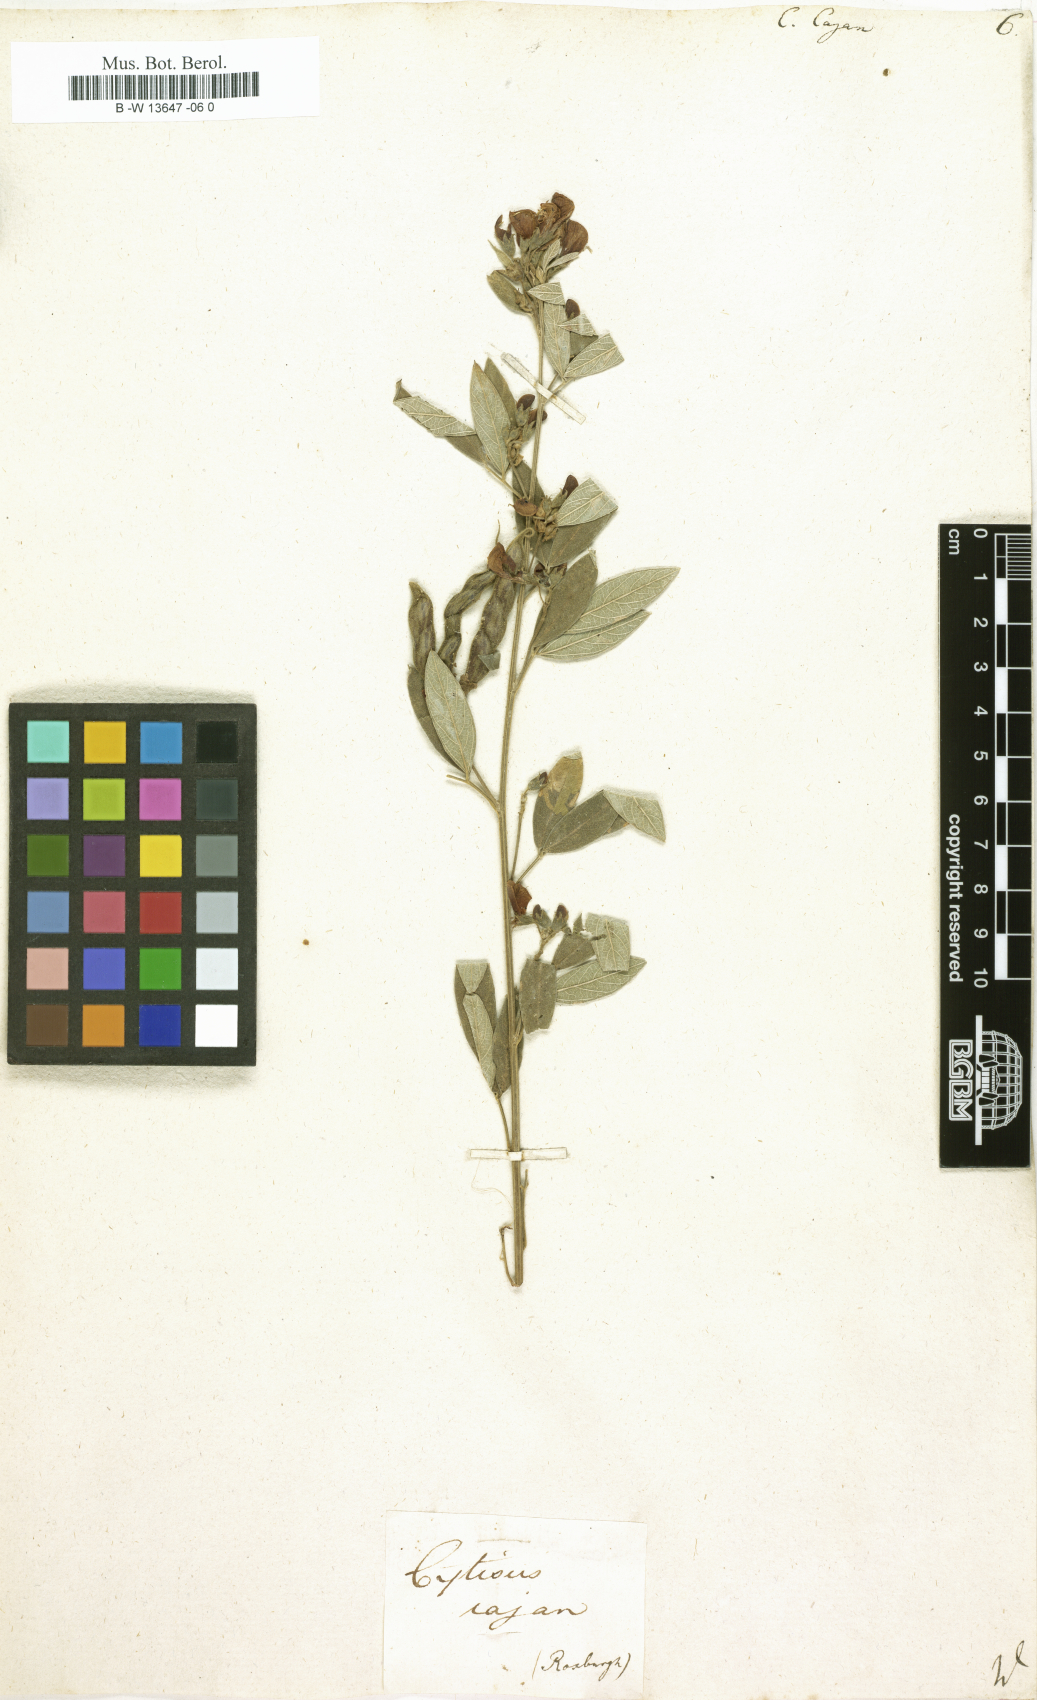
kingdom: Plantae
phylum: Tracheophyta
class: Magnoliopsida
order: Fabales
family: Fabaceae
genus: Cajanus
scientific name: Cajanus cajan
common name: Pigeonpea
